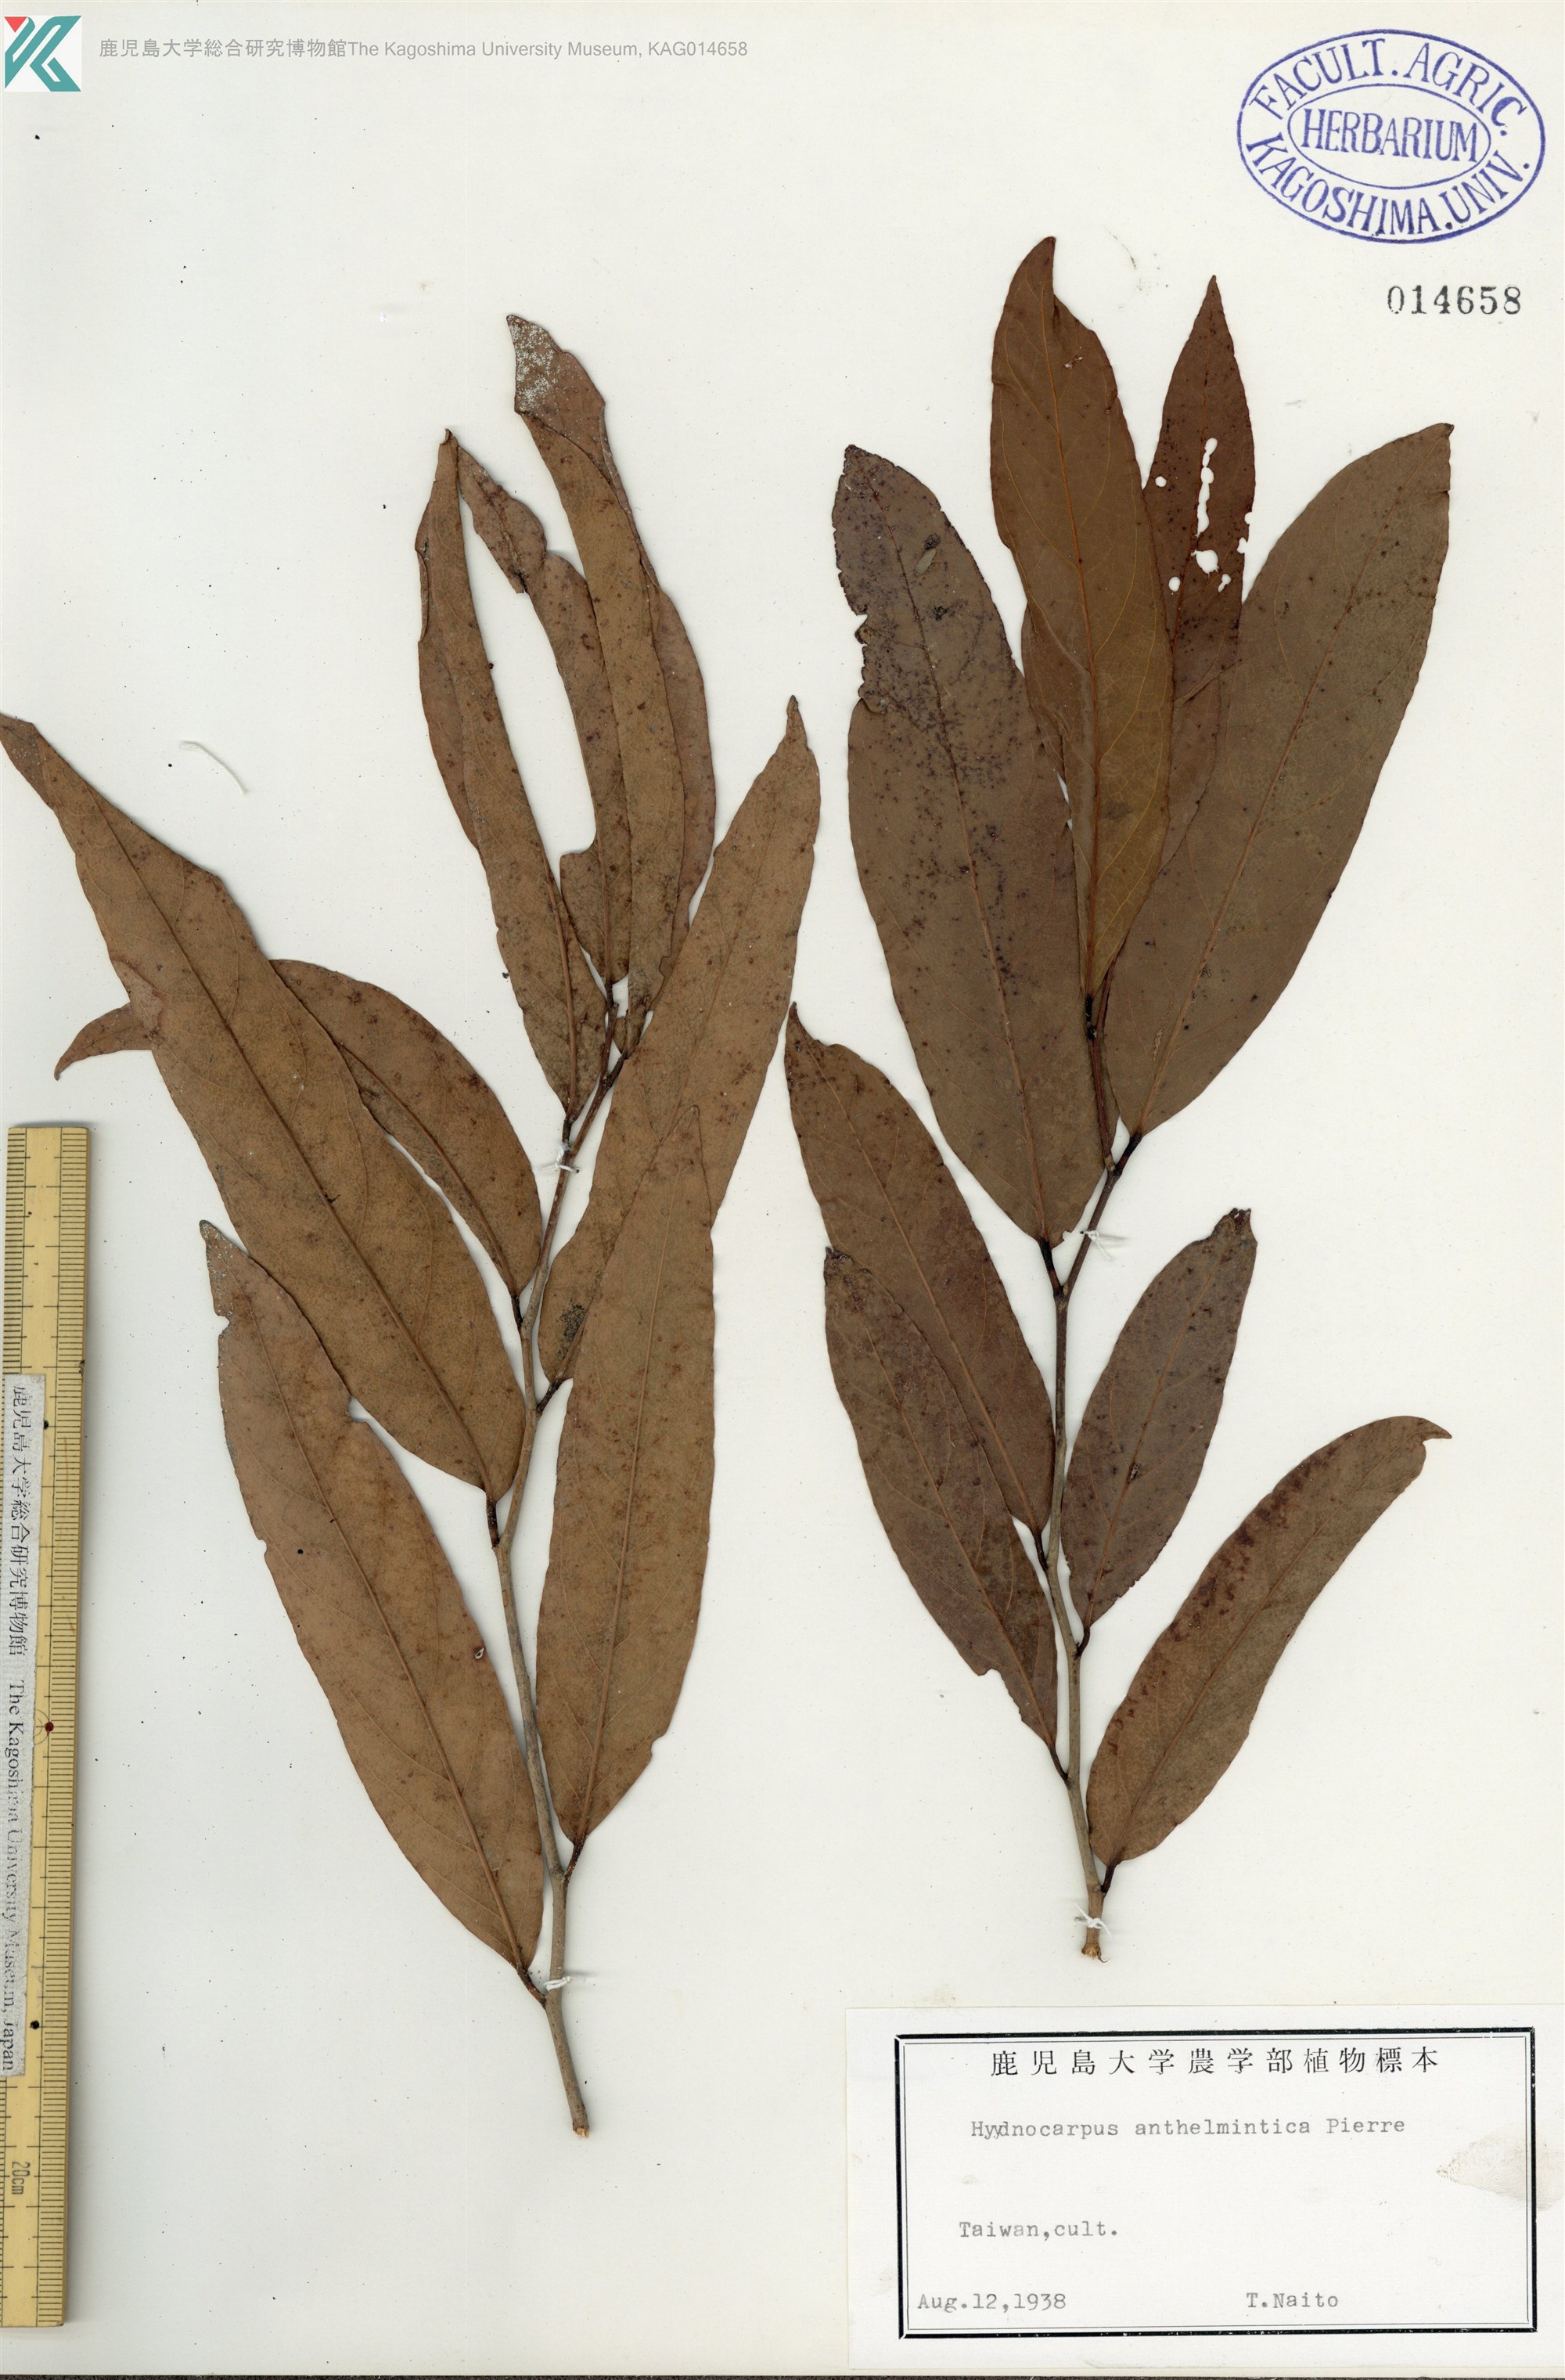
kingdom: Plantae
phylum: Tracheophyta
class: Magnoliopsida
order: Malpighiales
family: Achariaceae
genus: Hydnocarpus
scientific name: Hydnocarpus castaneus
